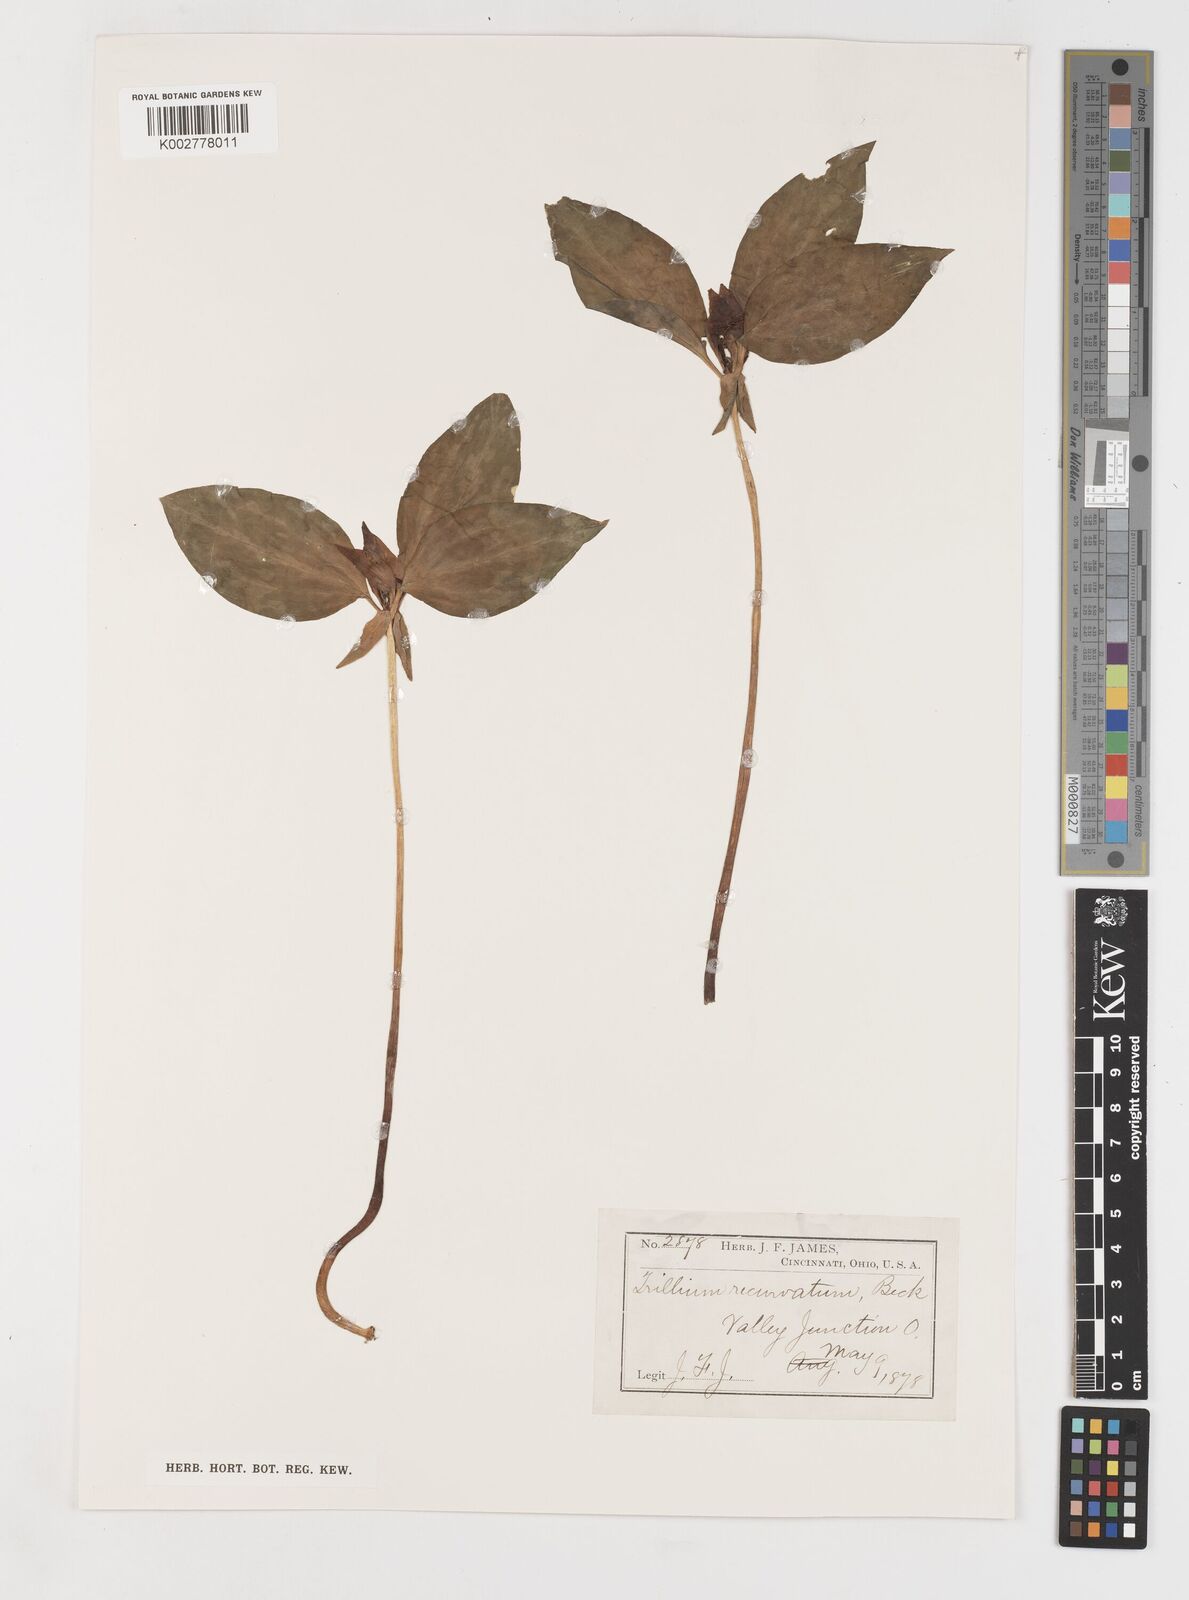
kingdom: Plantae
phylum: Tracheophyta
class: Liliopsida
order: Liliales
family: Melanthiaceae
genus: Trillium
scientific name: Trillium recurvatum
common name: Bloody butcher
